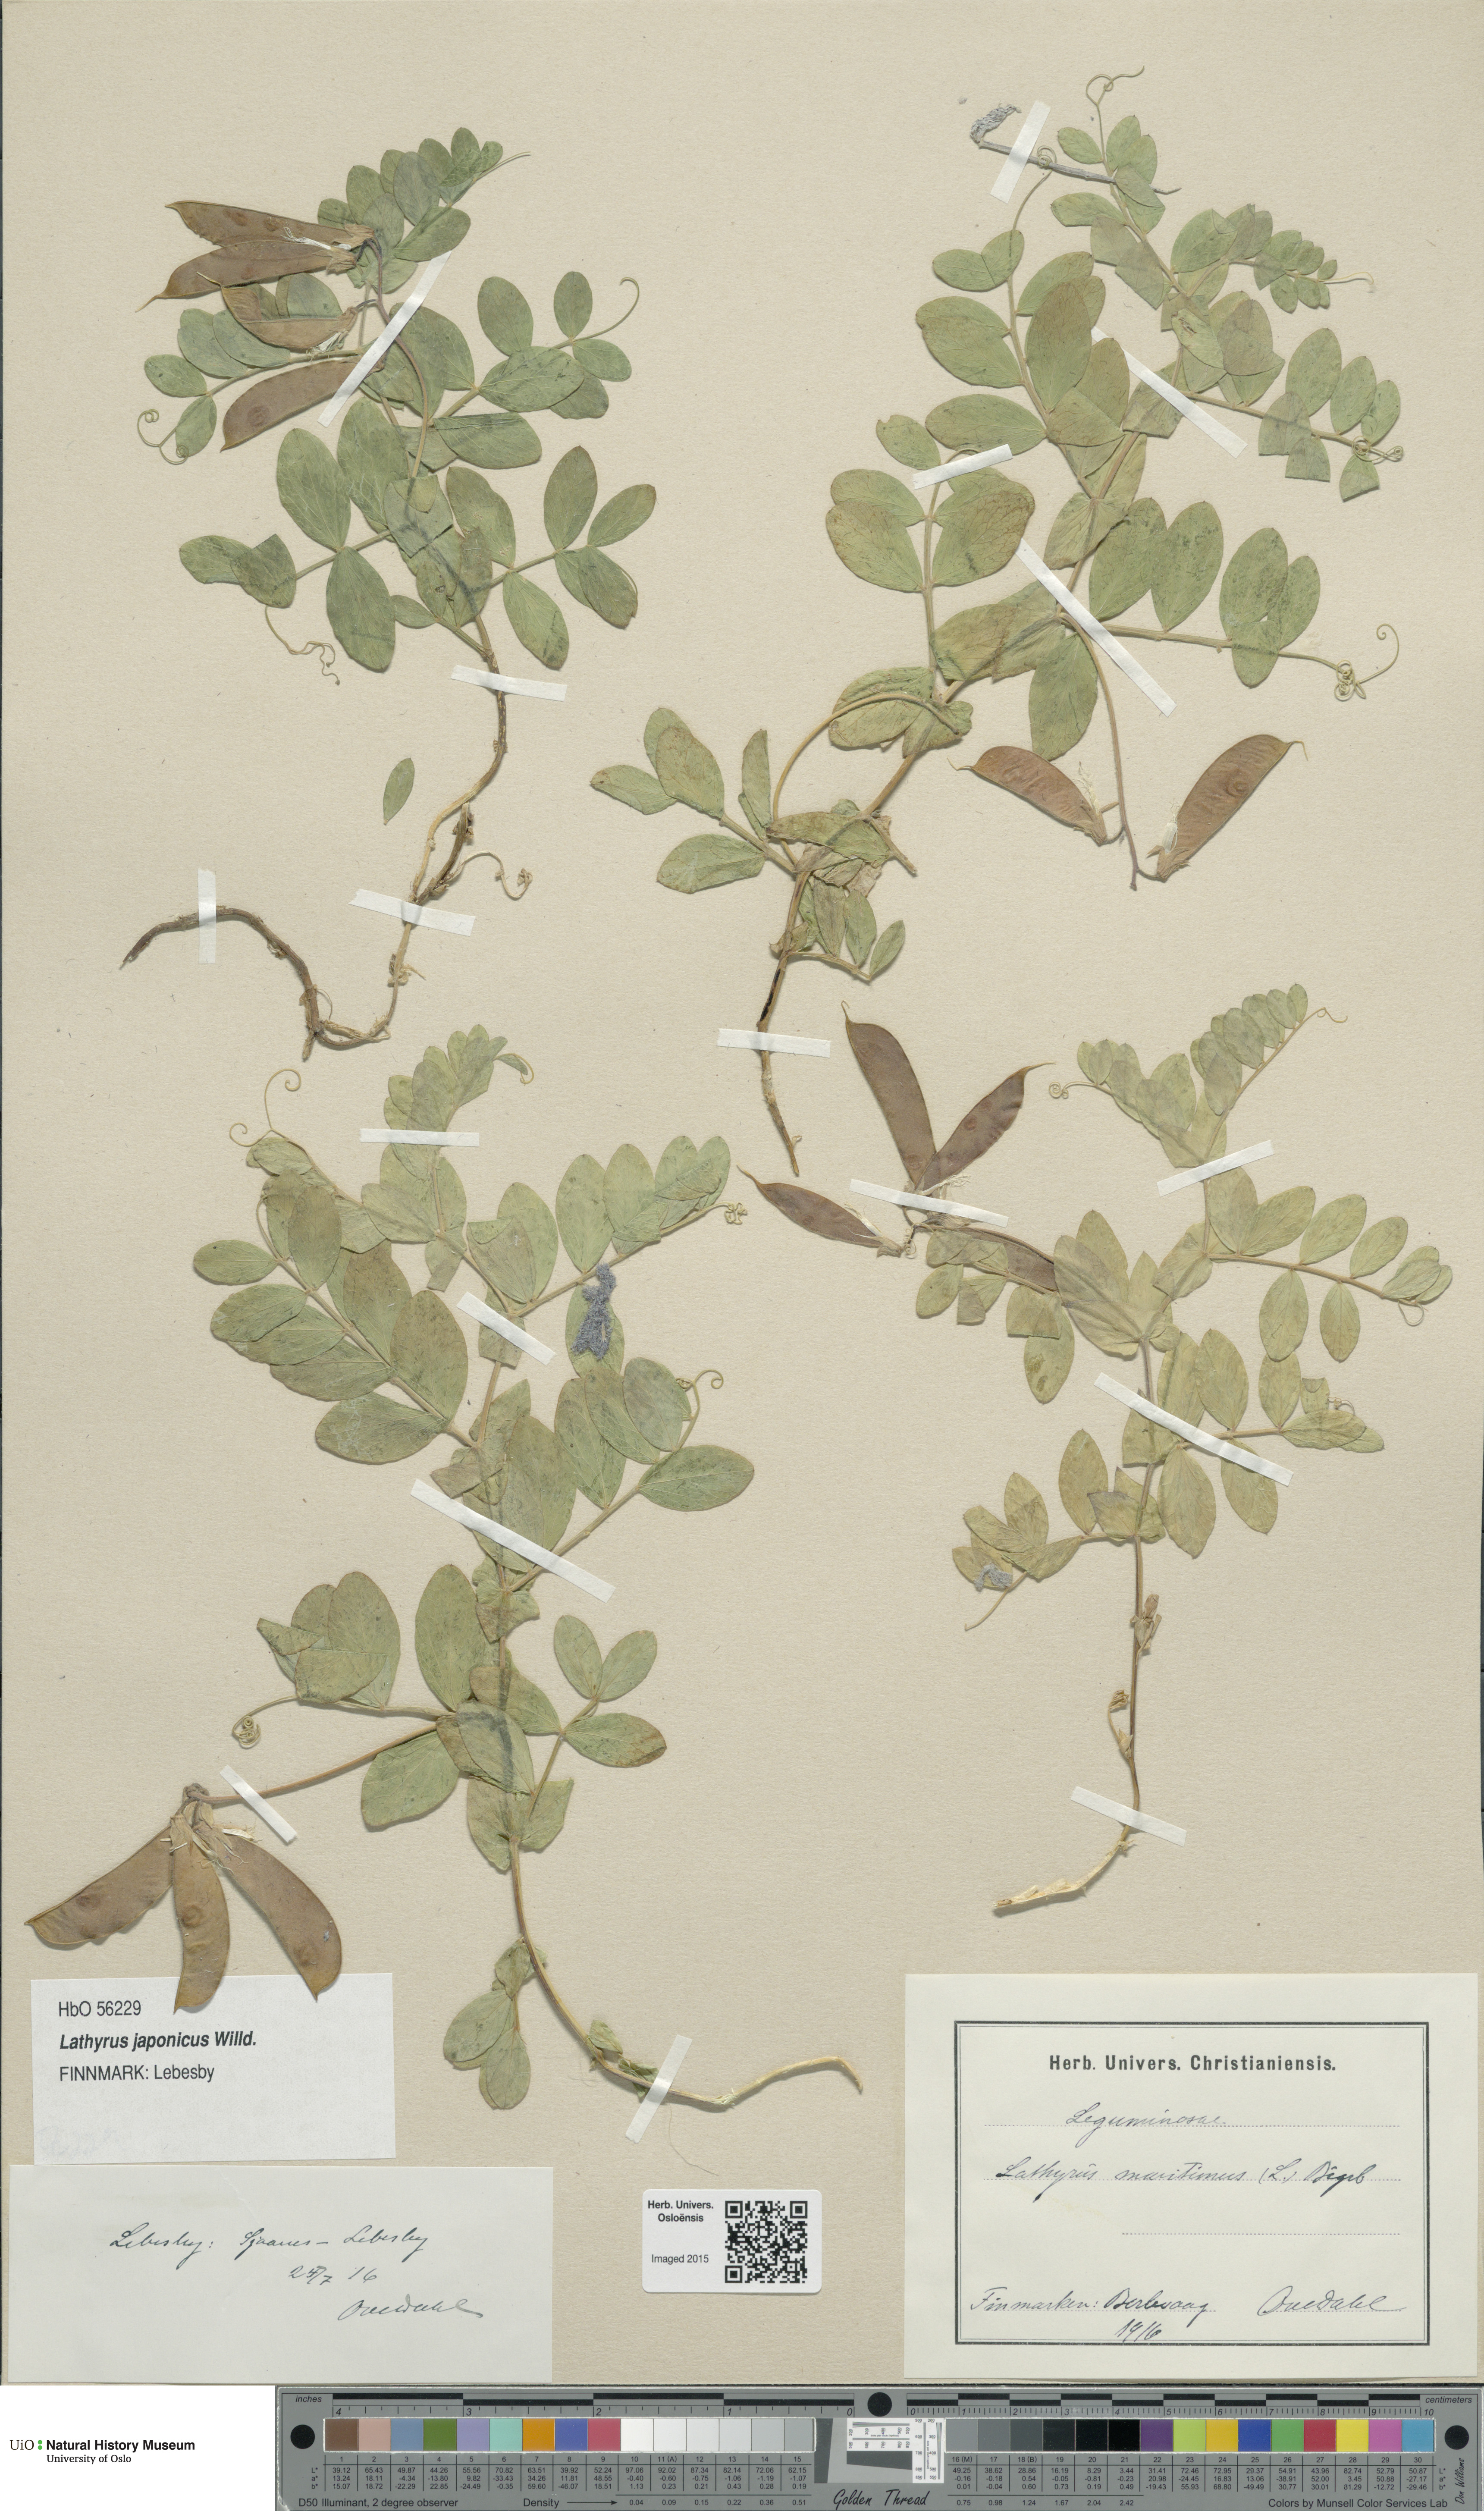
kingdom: Plantae
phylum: Tracheophyta
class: Magnoliopsida
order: Fabales
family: Fabaceae
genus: Lathyrus
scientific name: Lathyrus
